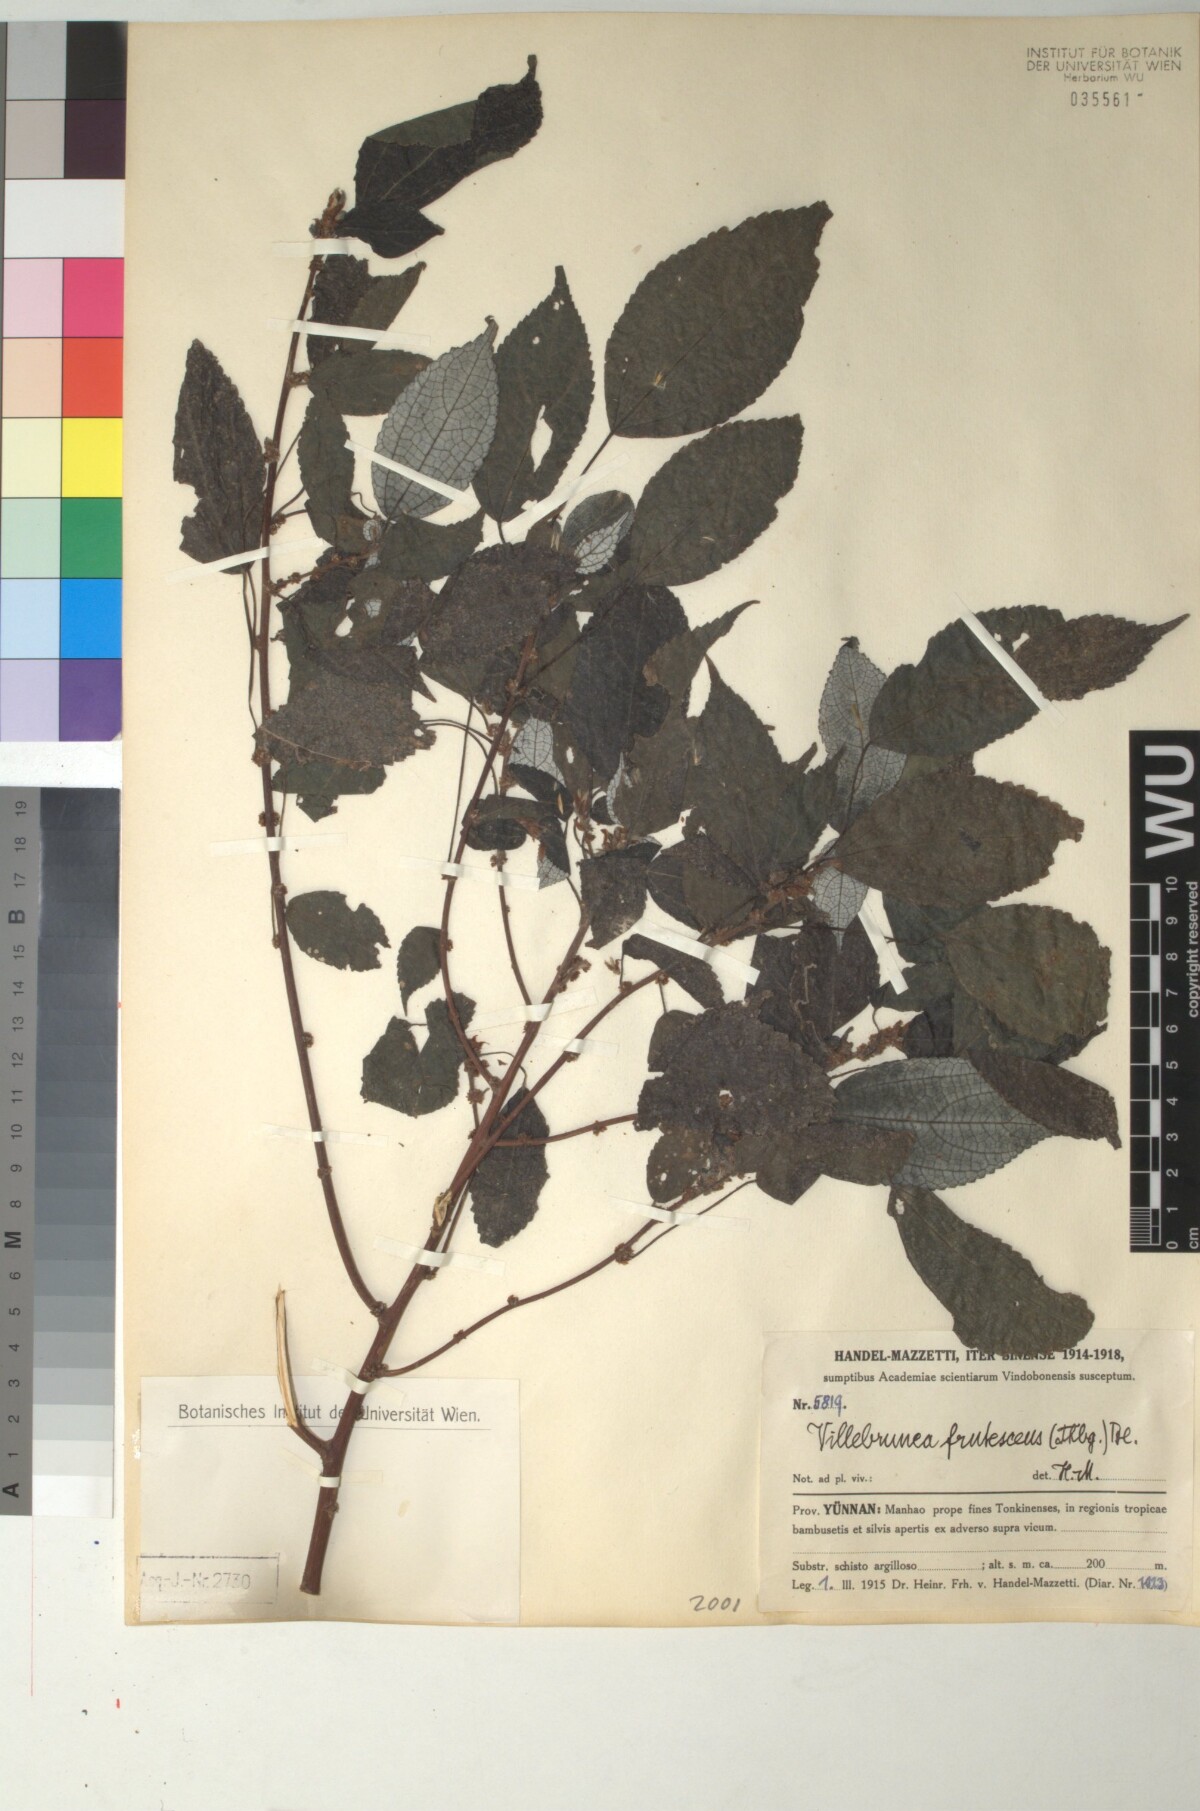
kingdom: Plantae
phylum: Tracheophyta
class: Magnoliopsida
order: Rosales
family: Urticaceae
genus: Oreocnide
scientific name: Oreocnide frutescens
